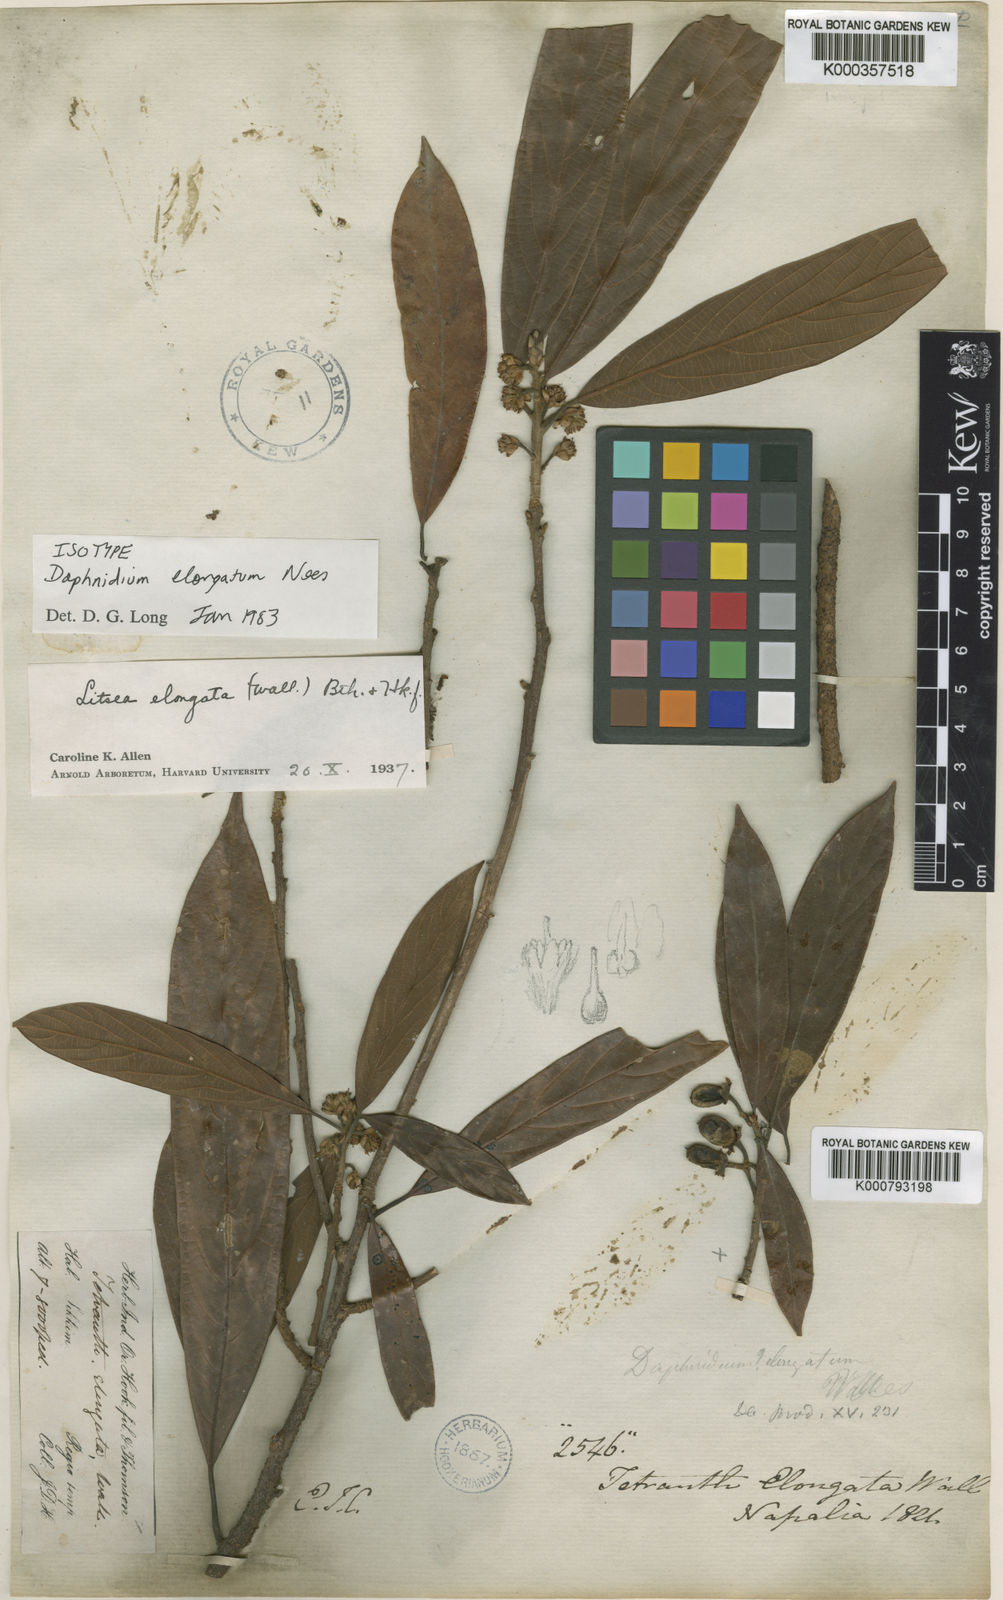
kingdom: Plantae
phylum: Tracheophyta
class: Magnoliopsida
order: Laurales
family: Lauraceae
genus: Litsea
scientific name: Litsea elongata
